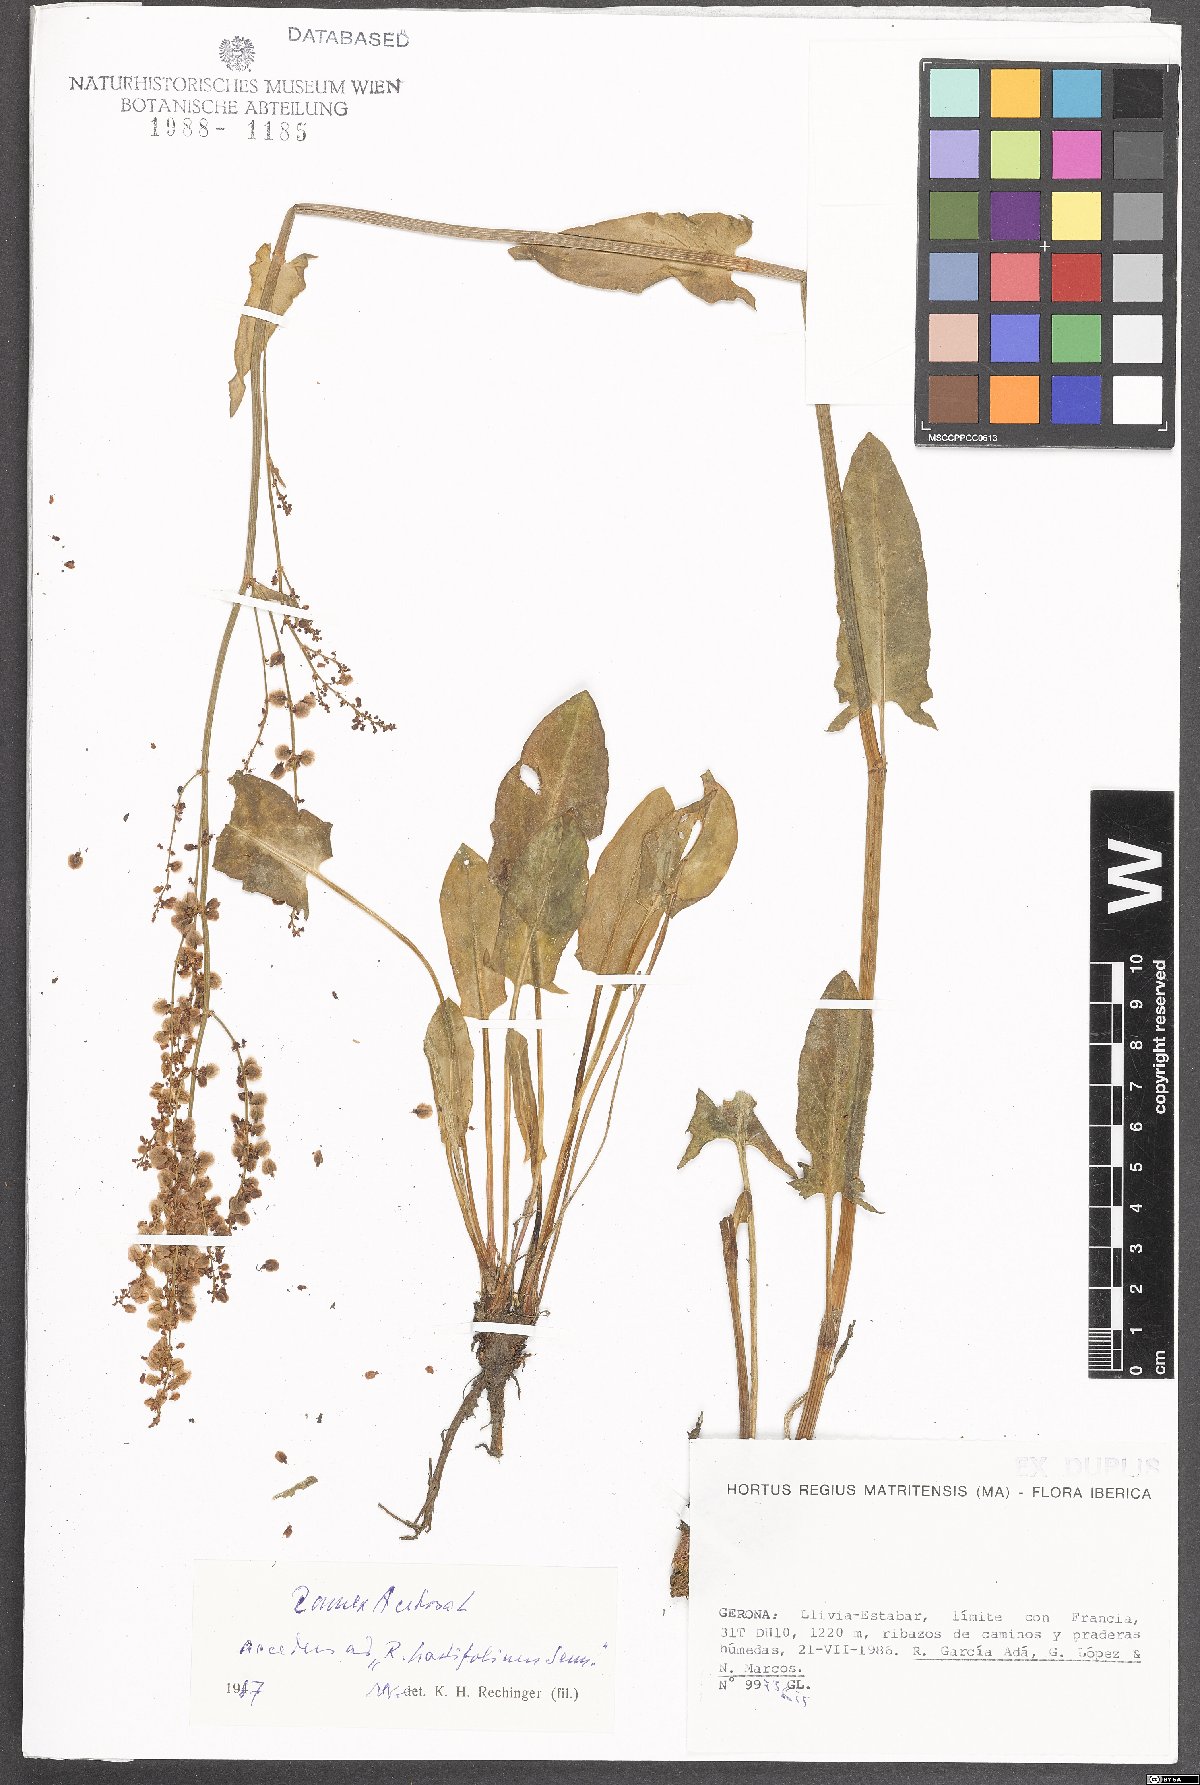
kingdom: Plantae
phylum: Tracheophyta
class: Magnoliopsida
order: Caryophyllales
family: Polygonaceae
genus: Rumex
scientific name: Rumex acetosa
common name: Garden sorrel
